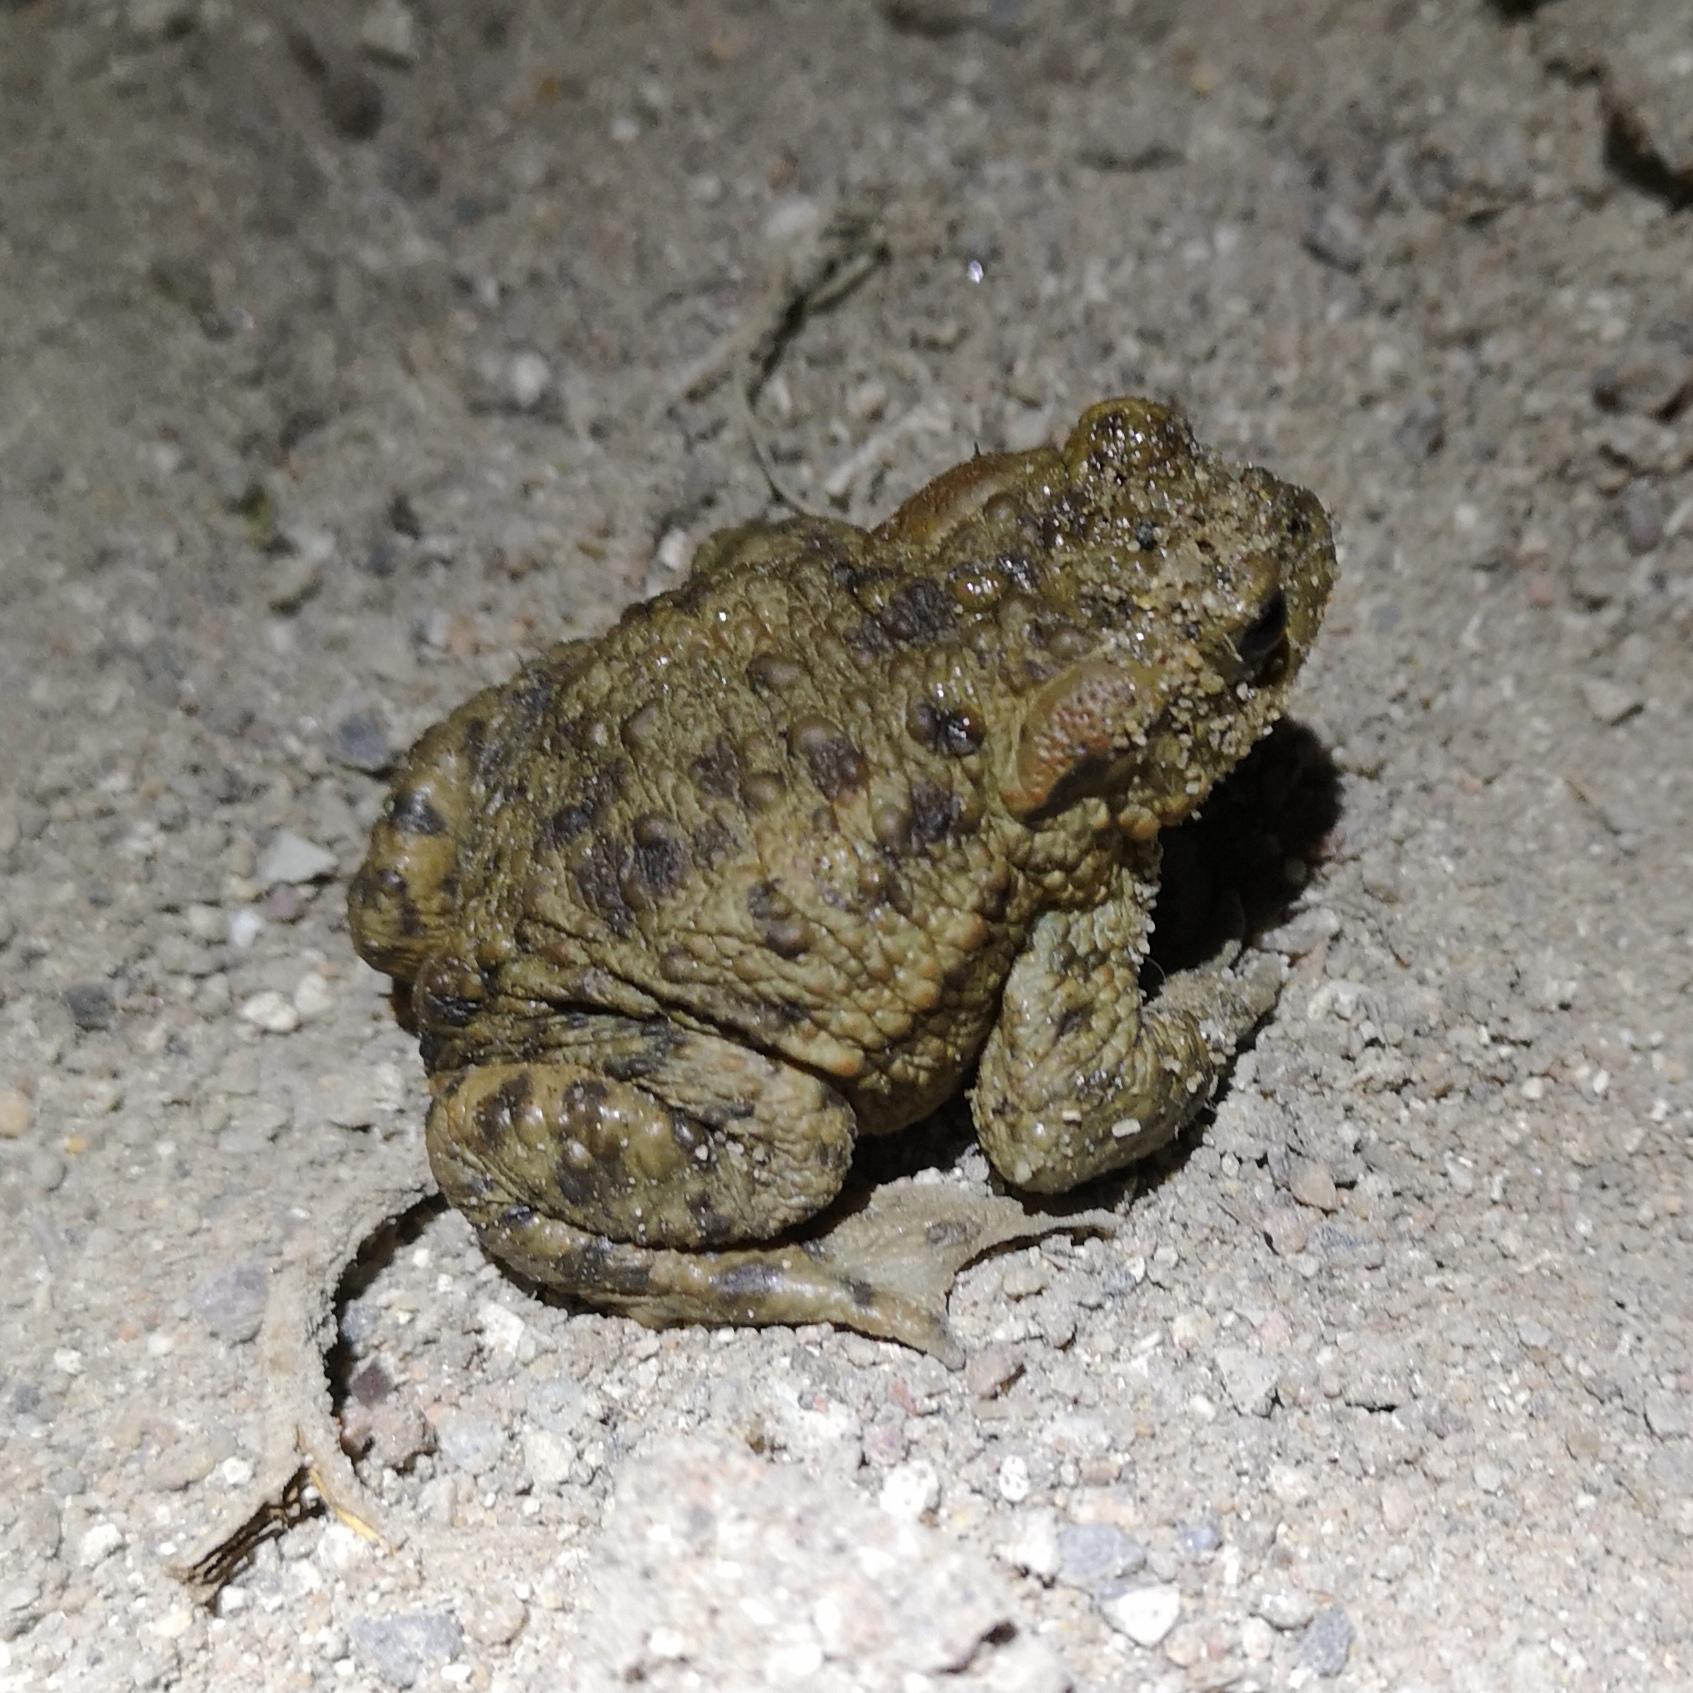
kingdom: Animalia
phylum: Chordata
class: Amphibia
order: Anura
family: Bufonidae
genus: Bufo
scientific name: Bufo bufo
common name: Skrubtudse
